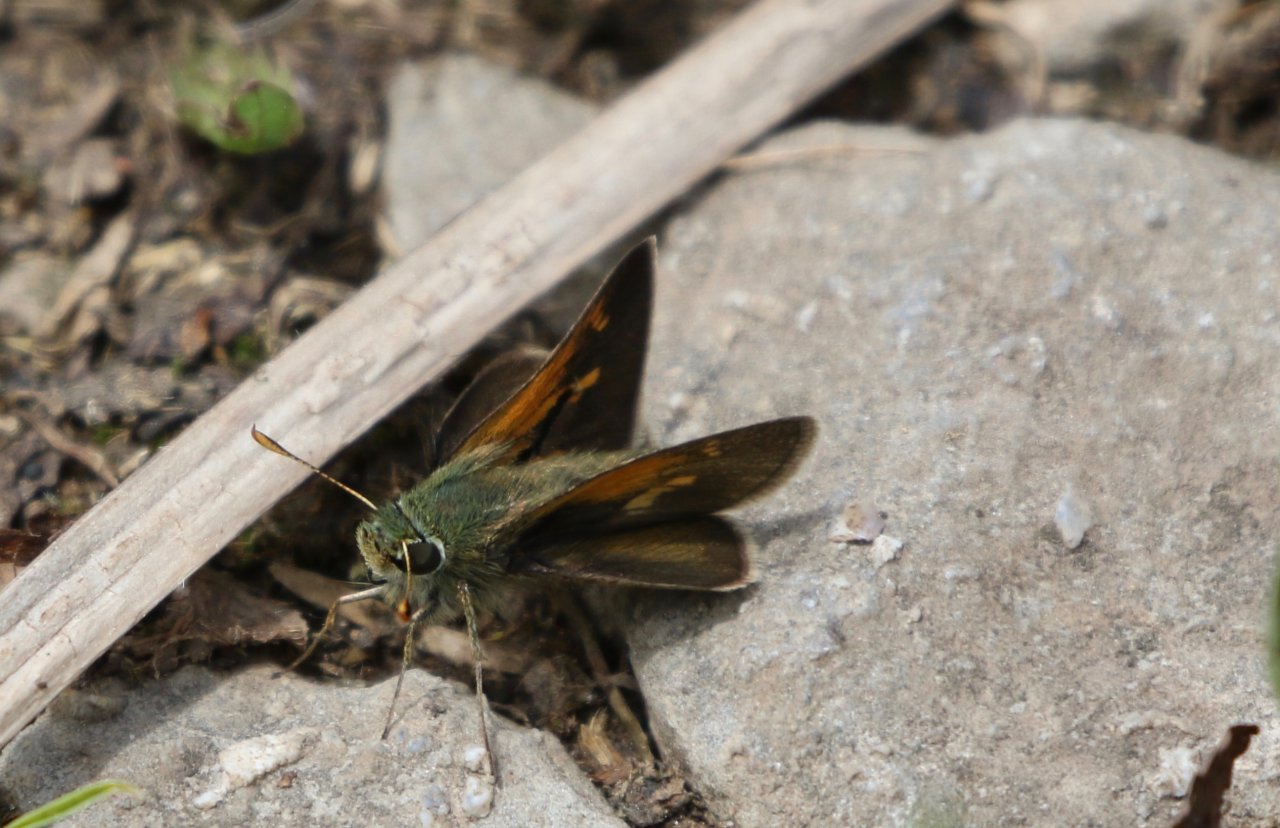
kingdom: Animalia
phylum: Arthropoda
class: Insecta
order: Lepidoptera
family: Hesperiidae
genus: Polites
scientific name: Polites themistocles
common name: Tawny-edged Skipper
